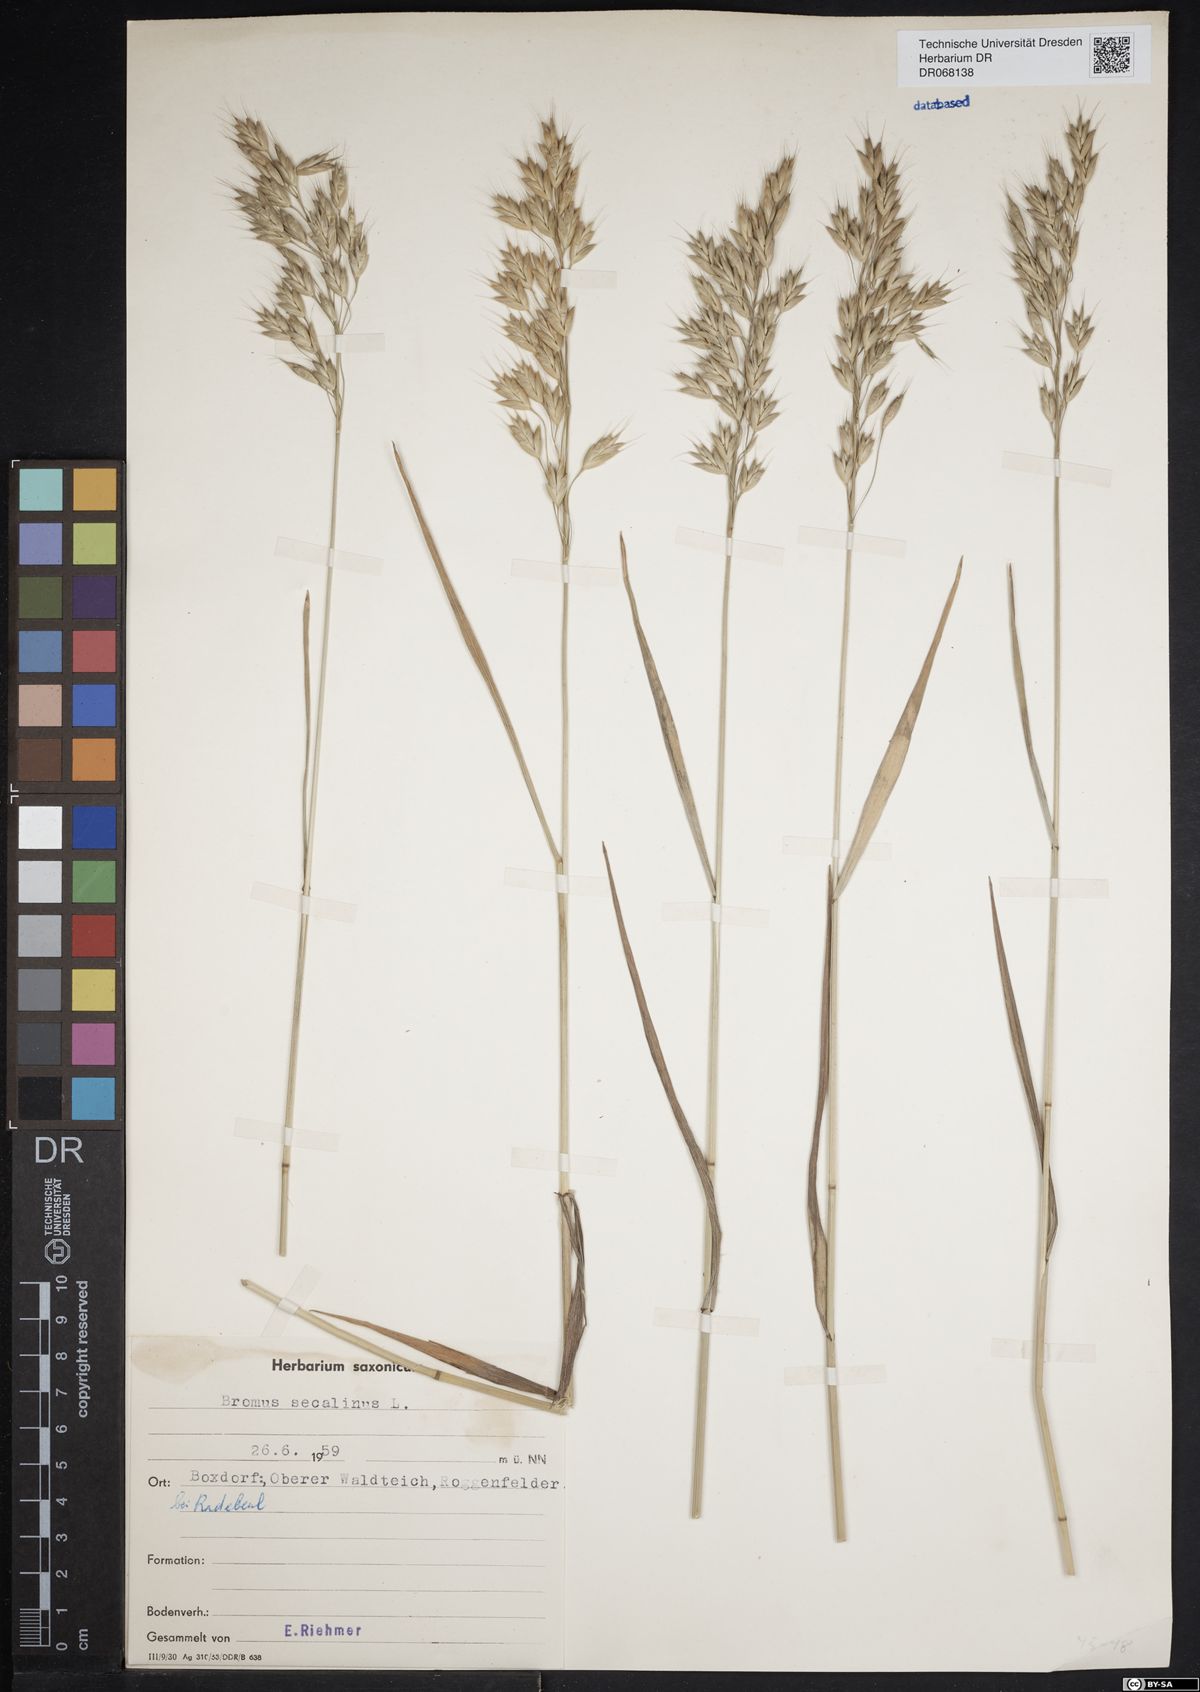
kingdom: Plantae
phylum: Tracheophyta
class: Liliopsida
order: Poales
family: Poaceae
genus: Bromus
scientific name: Bromus secalinus
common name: Rye brome
